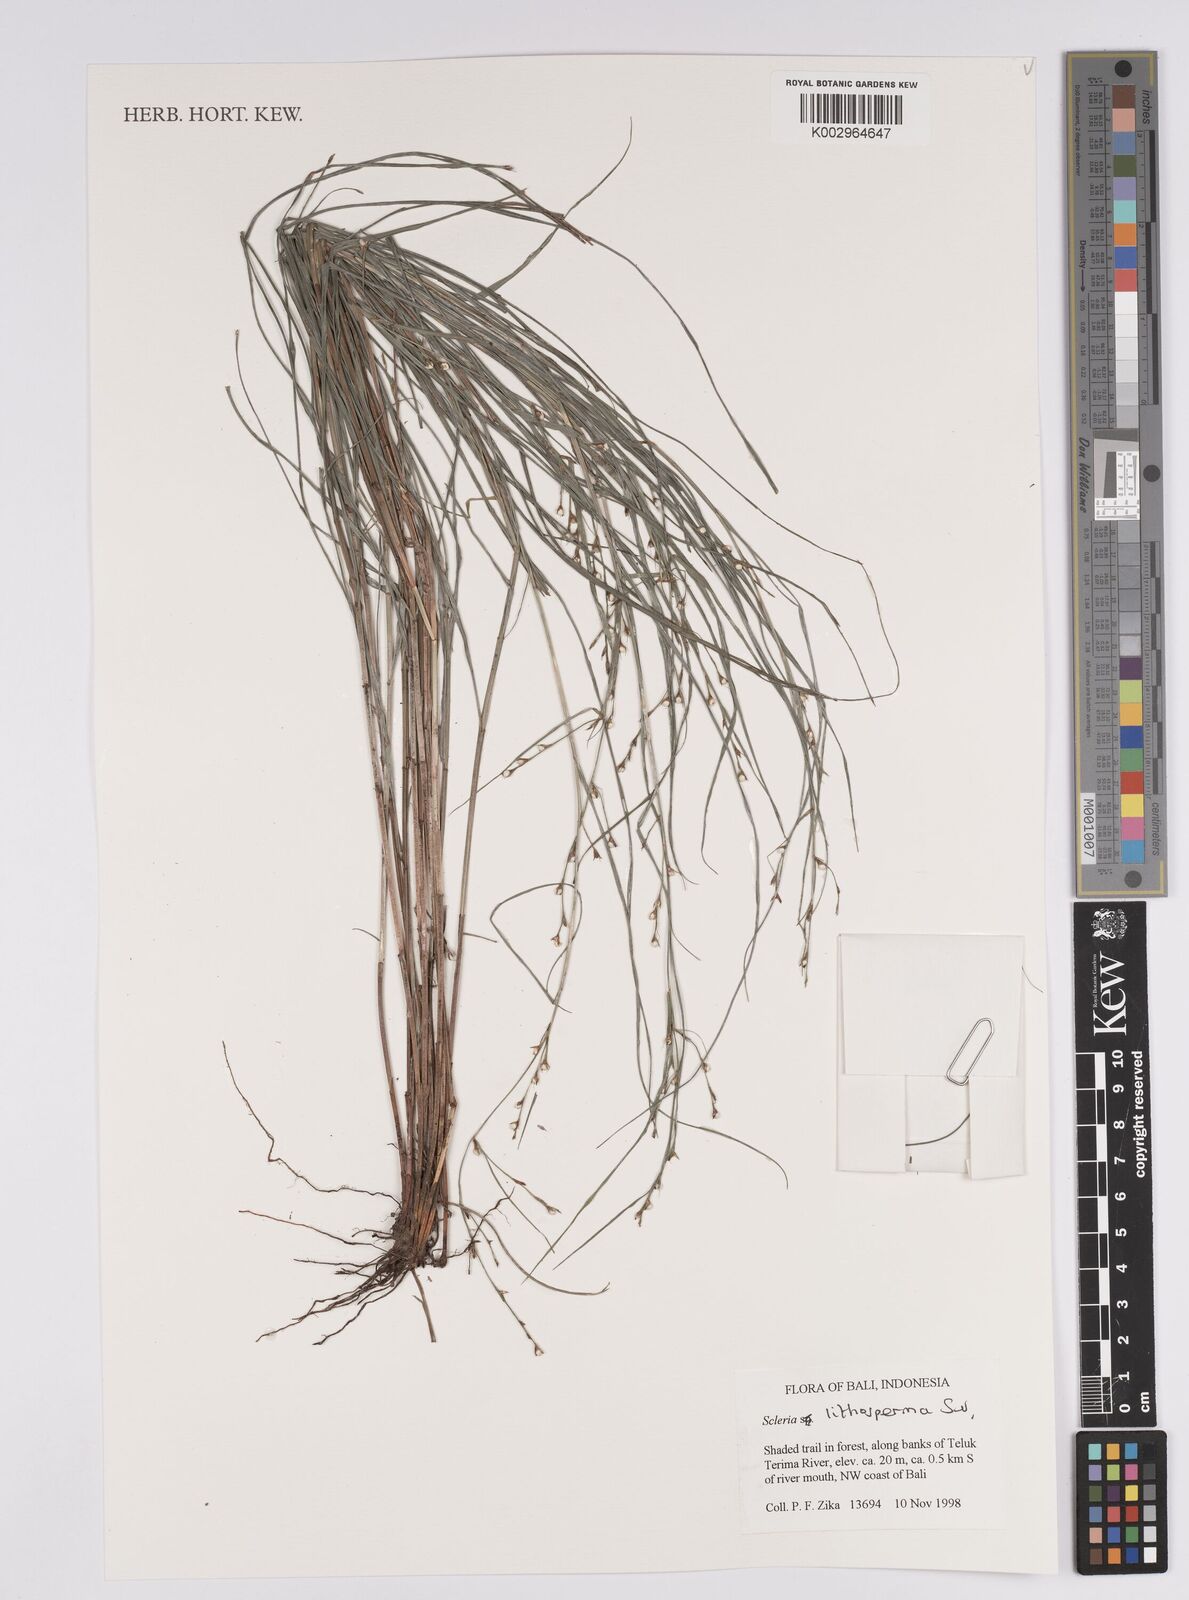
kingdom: Plantae
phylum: Tracheophyta
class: Liliopsida
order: Poales
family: Cyperaceae
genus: Scleria
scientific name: Scleria lithosperma
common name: Florida keys nut-rush
